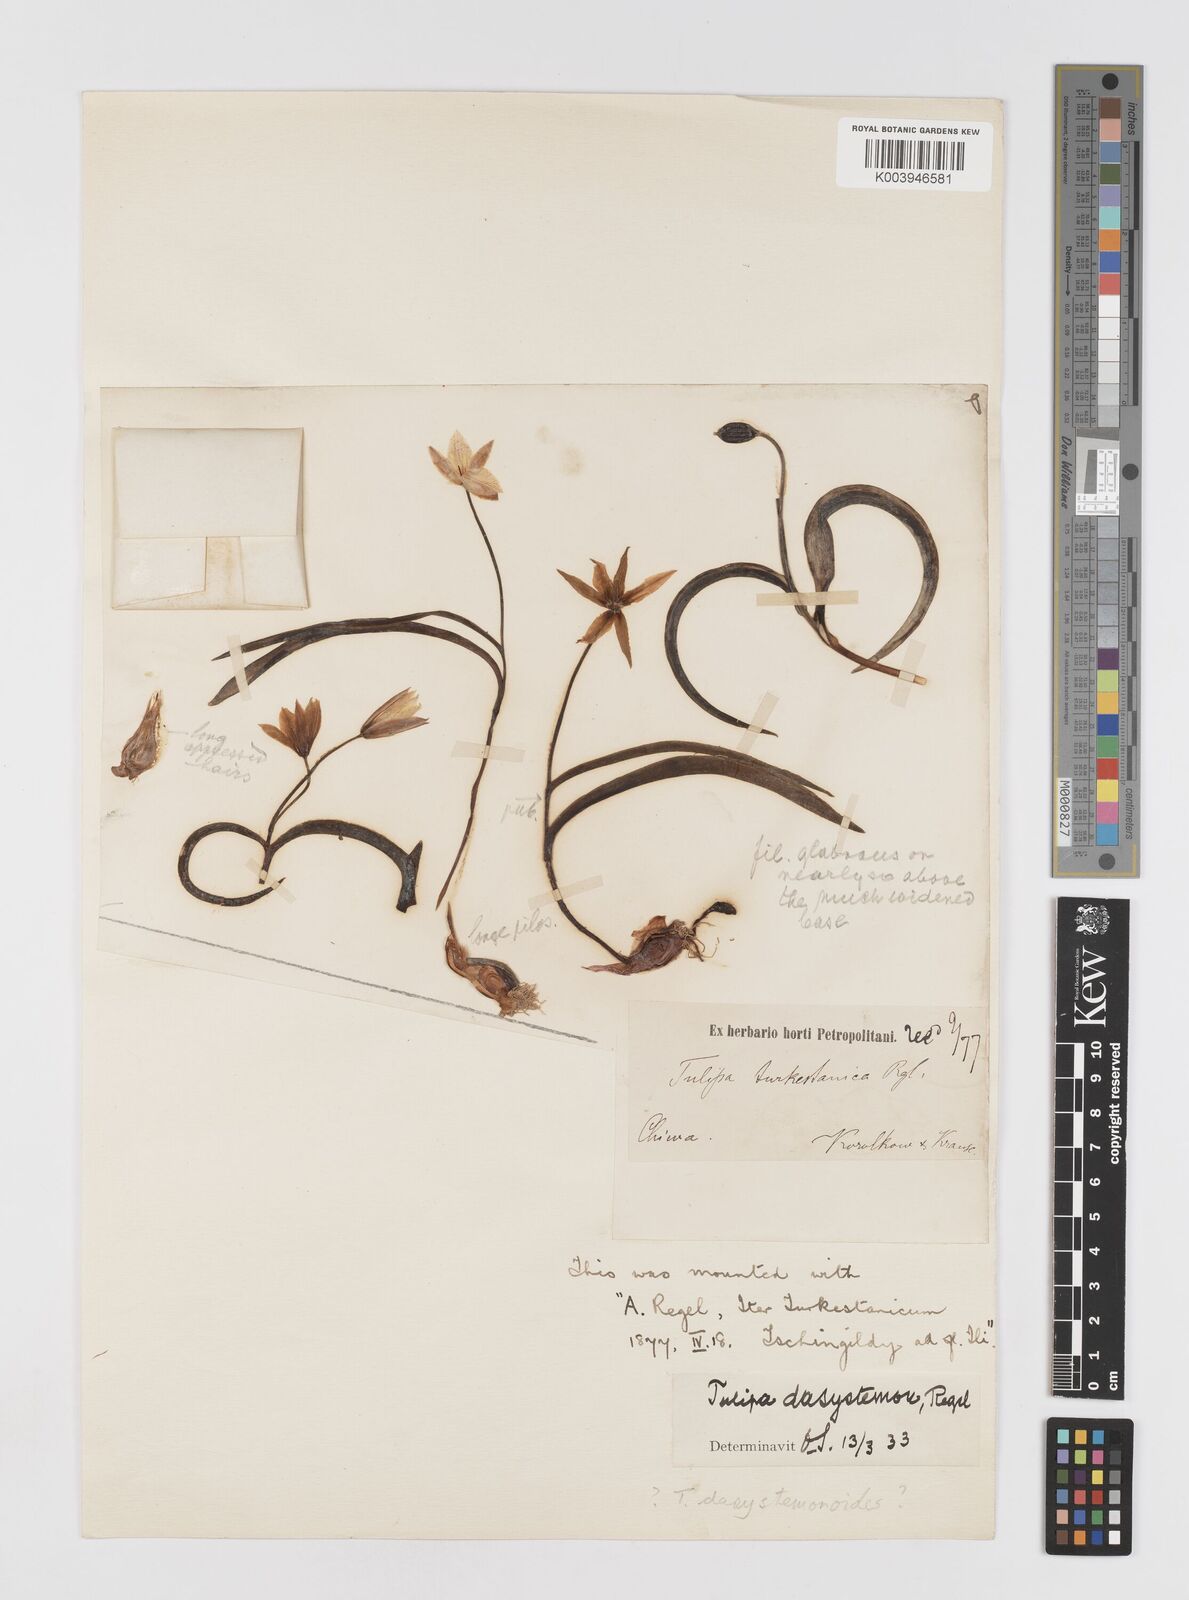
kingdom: Plantae
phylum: Tracheophyta
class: Liliopsida
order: Liliales
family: Liliaceae
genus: Tulipa
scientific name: Tulipa dasystemon
